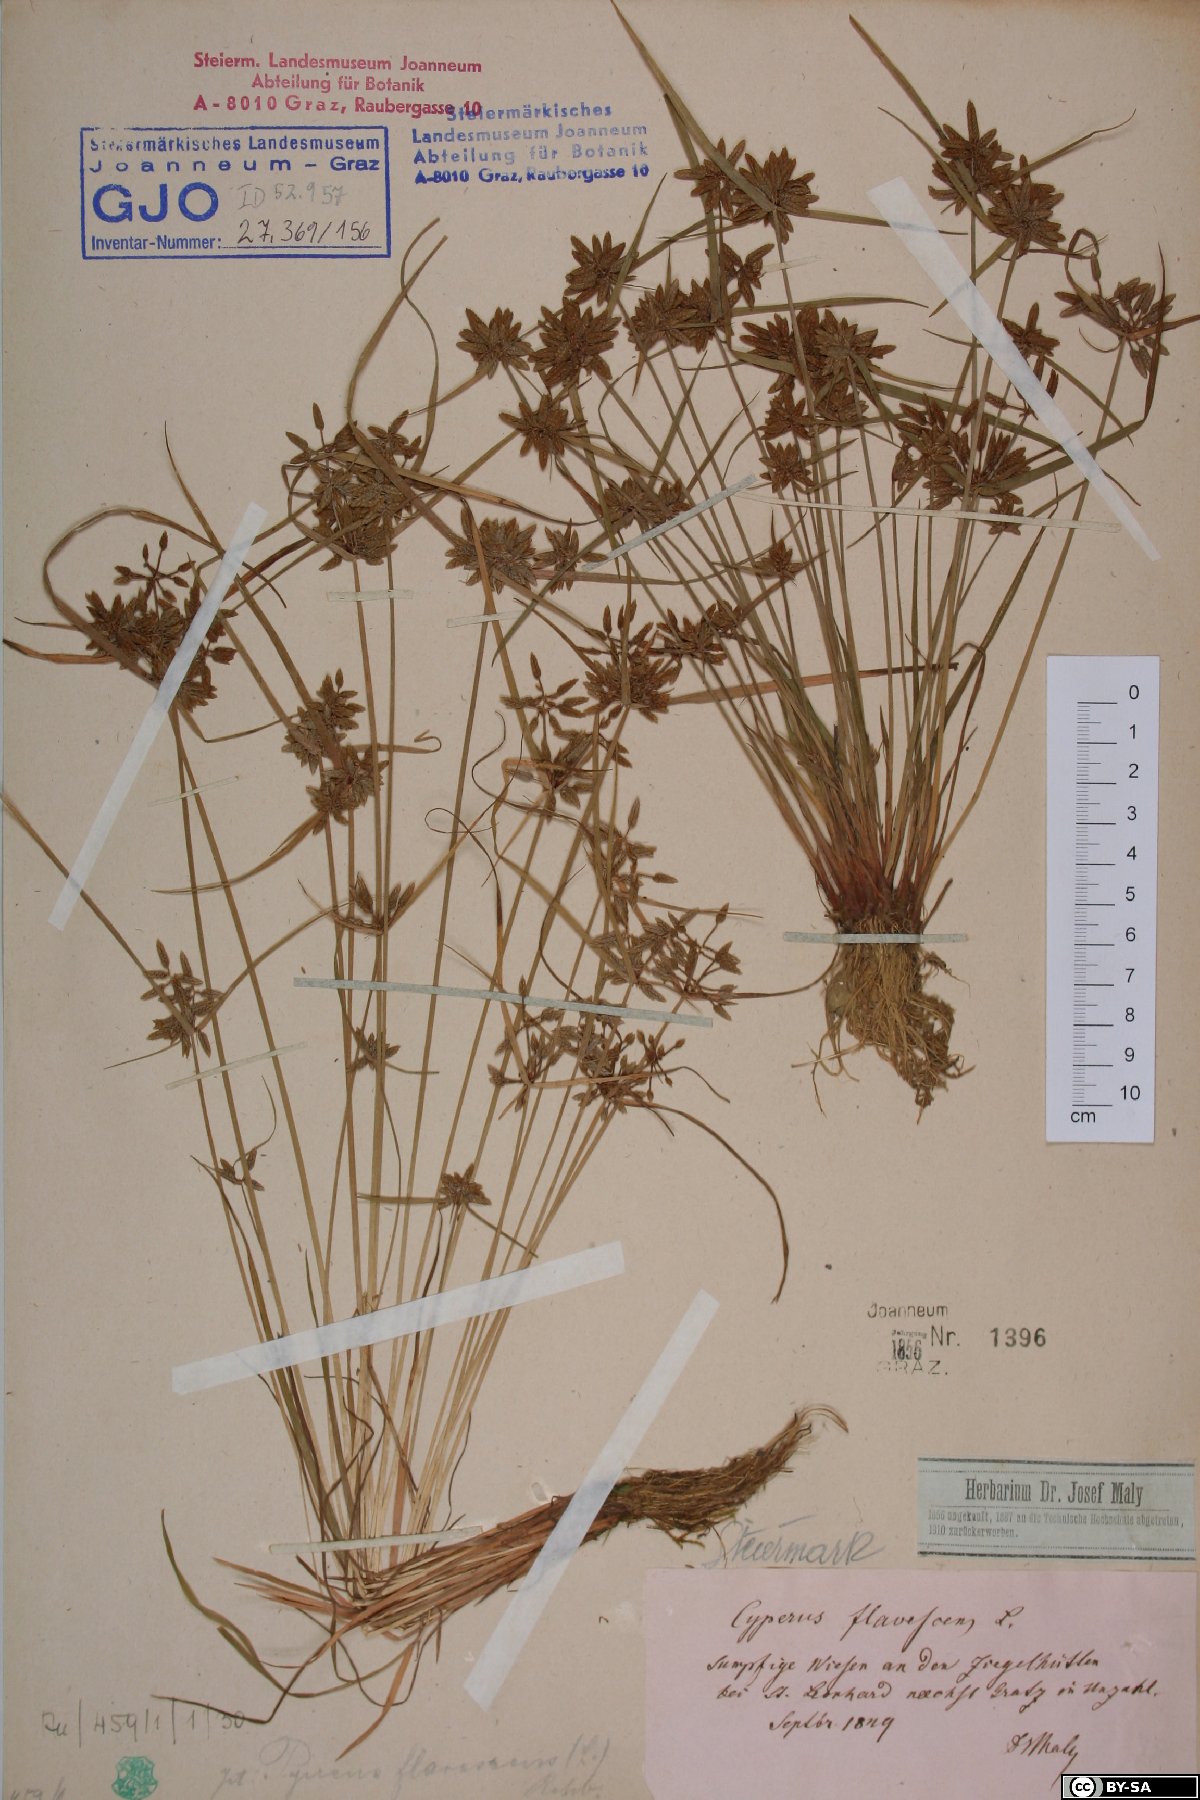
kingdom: Plantae
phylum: Tracheophyta
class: Liliopsida
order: Poales
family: Cyperaceae
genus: Cyperus
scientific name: Cyperus flavescens
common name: Yellow galingale
